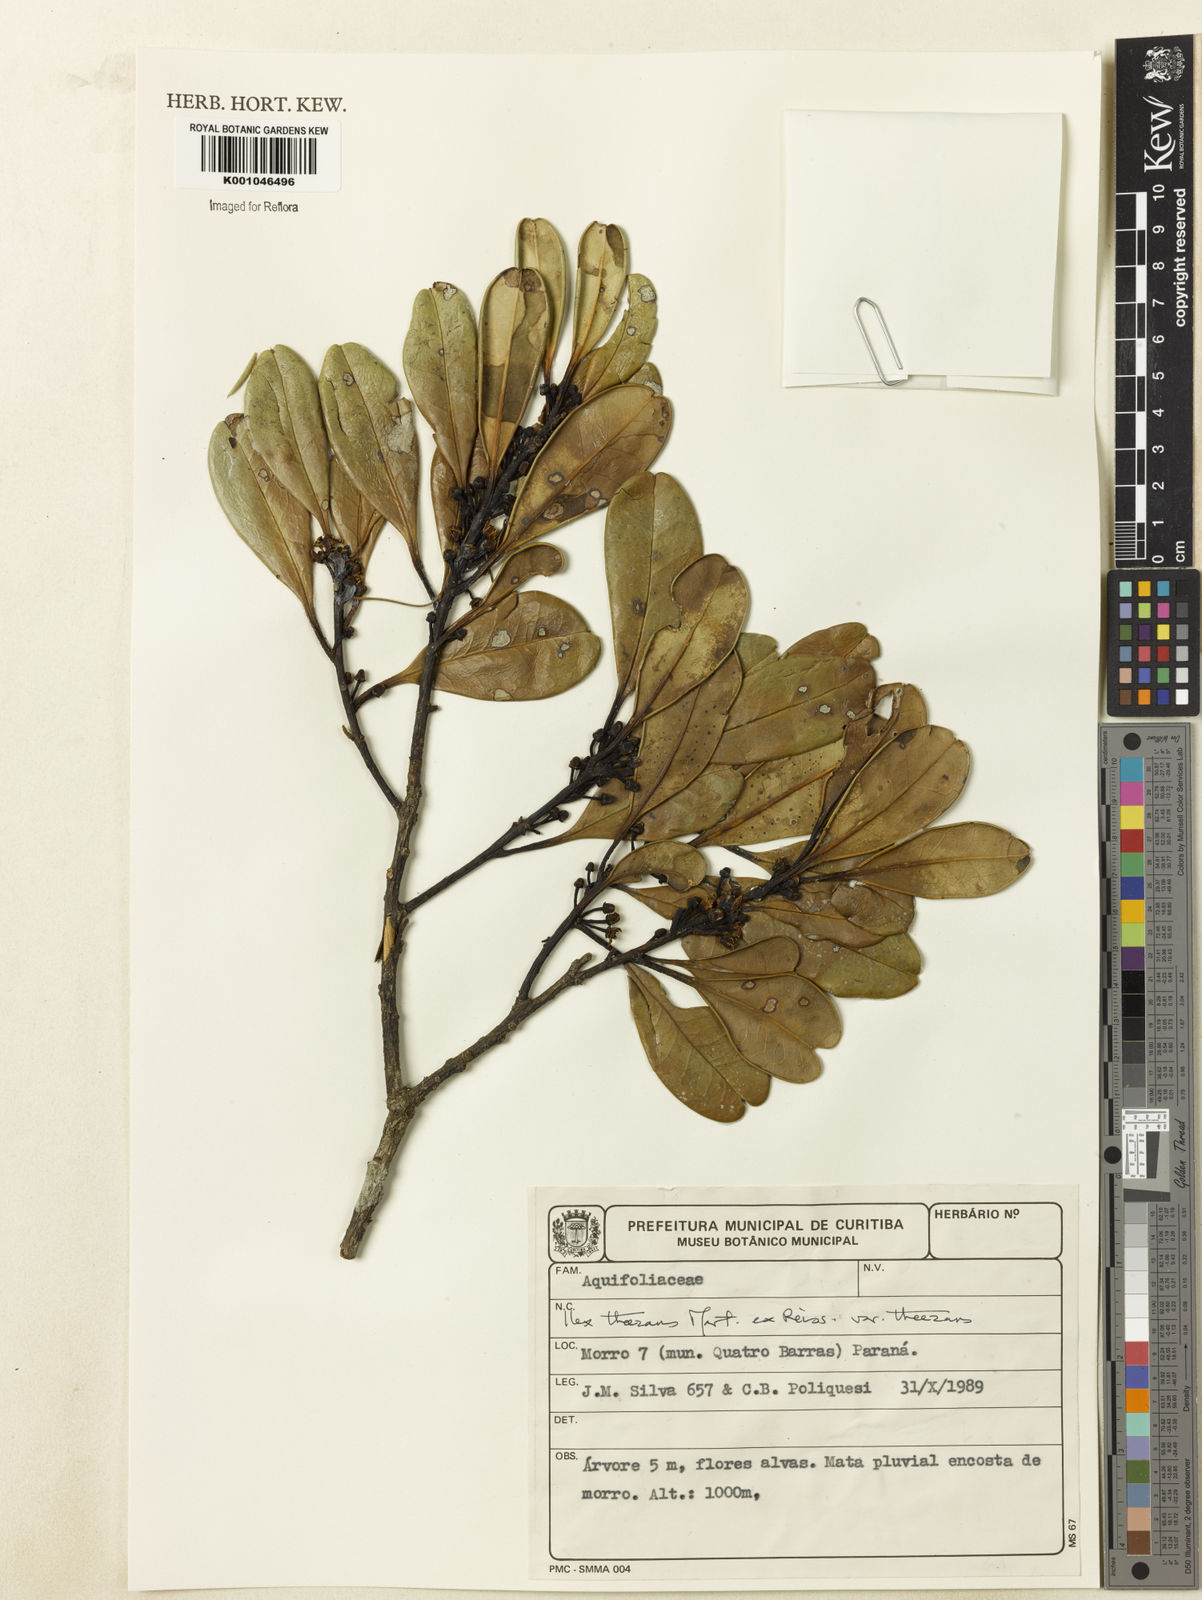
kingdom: Plantae
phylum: Tracheophyta
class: Magnoliopsida
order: Aquifoliales
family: Aquifoliaceae
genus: Ilex
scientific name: Ilex paraguariensis
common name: Paraguay tea
